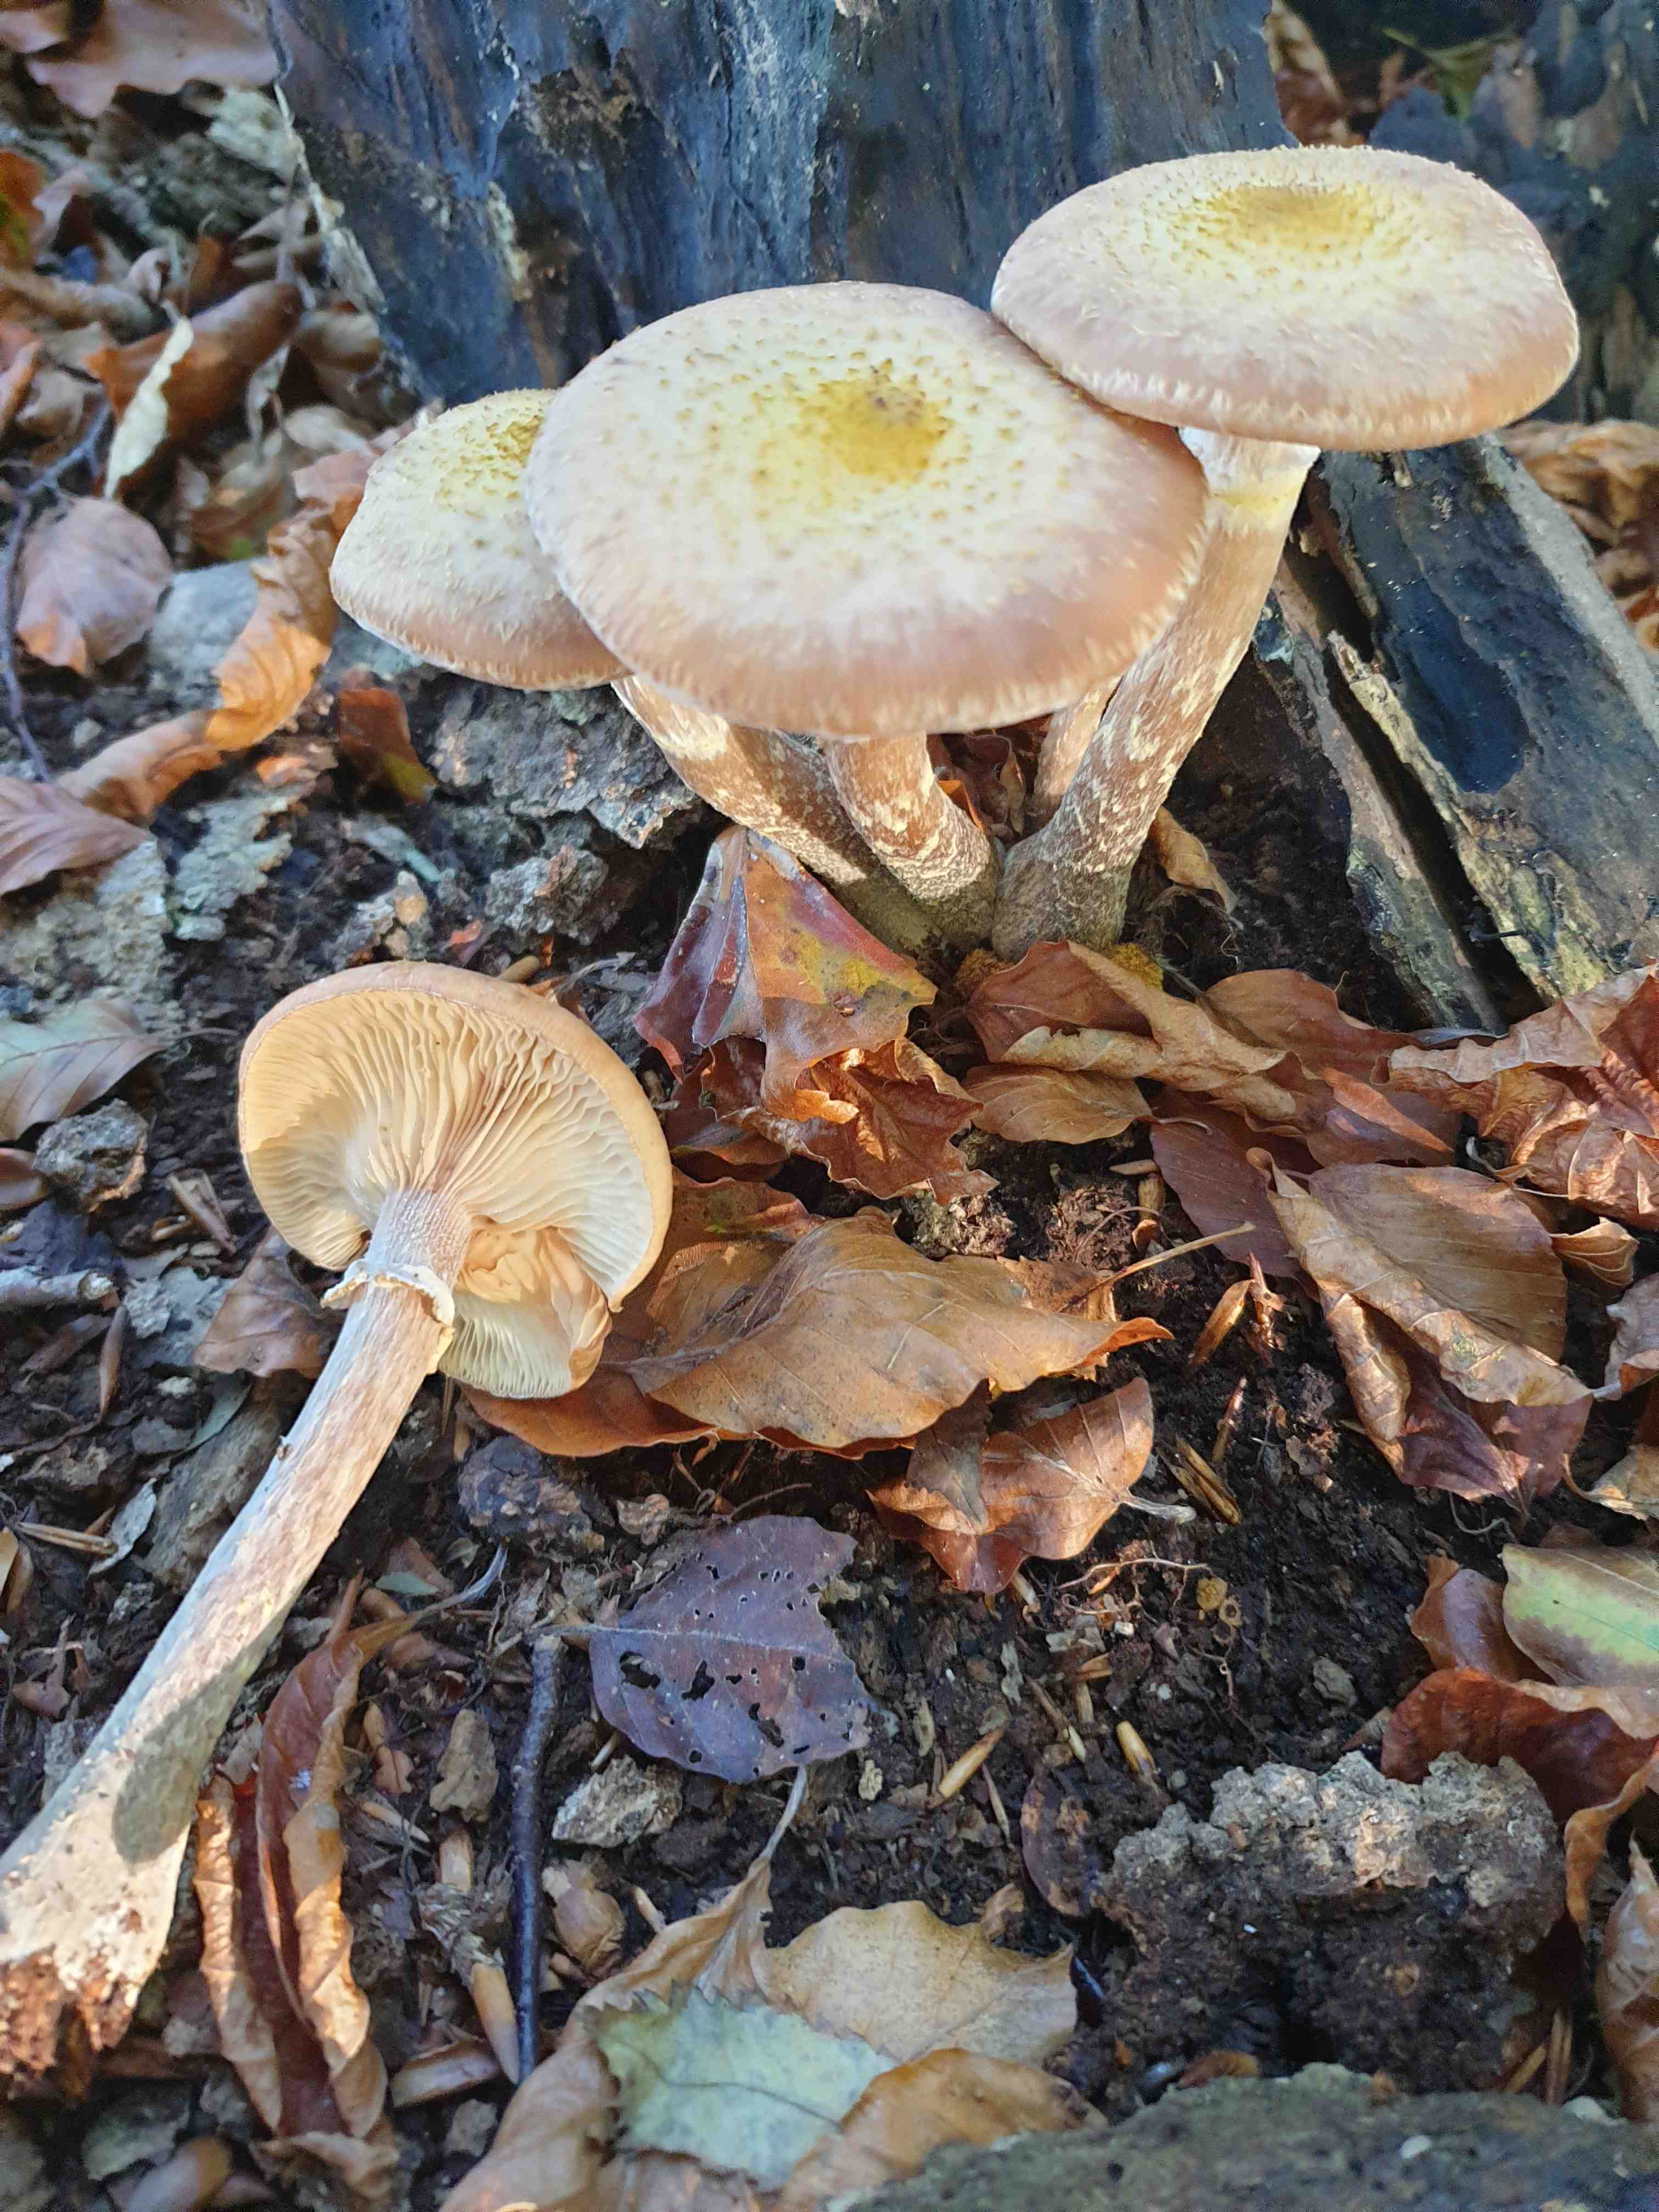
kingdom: Fungi
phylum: Basidiomycota
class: Agaricomycetes
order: Agaricales
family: Physalacriaceae
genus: Armillaria
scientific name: Armillaria
